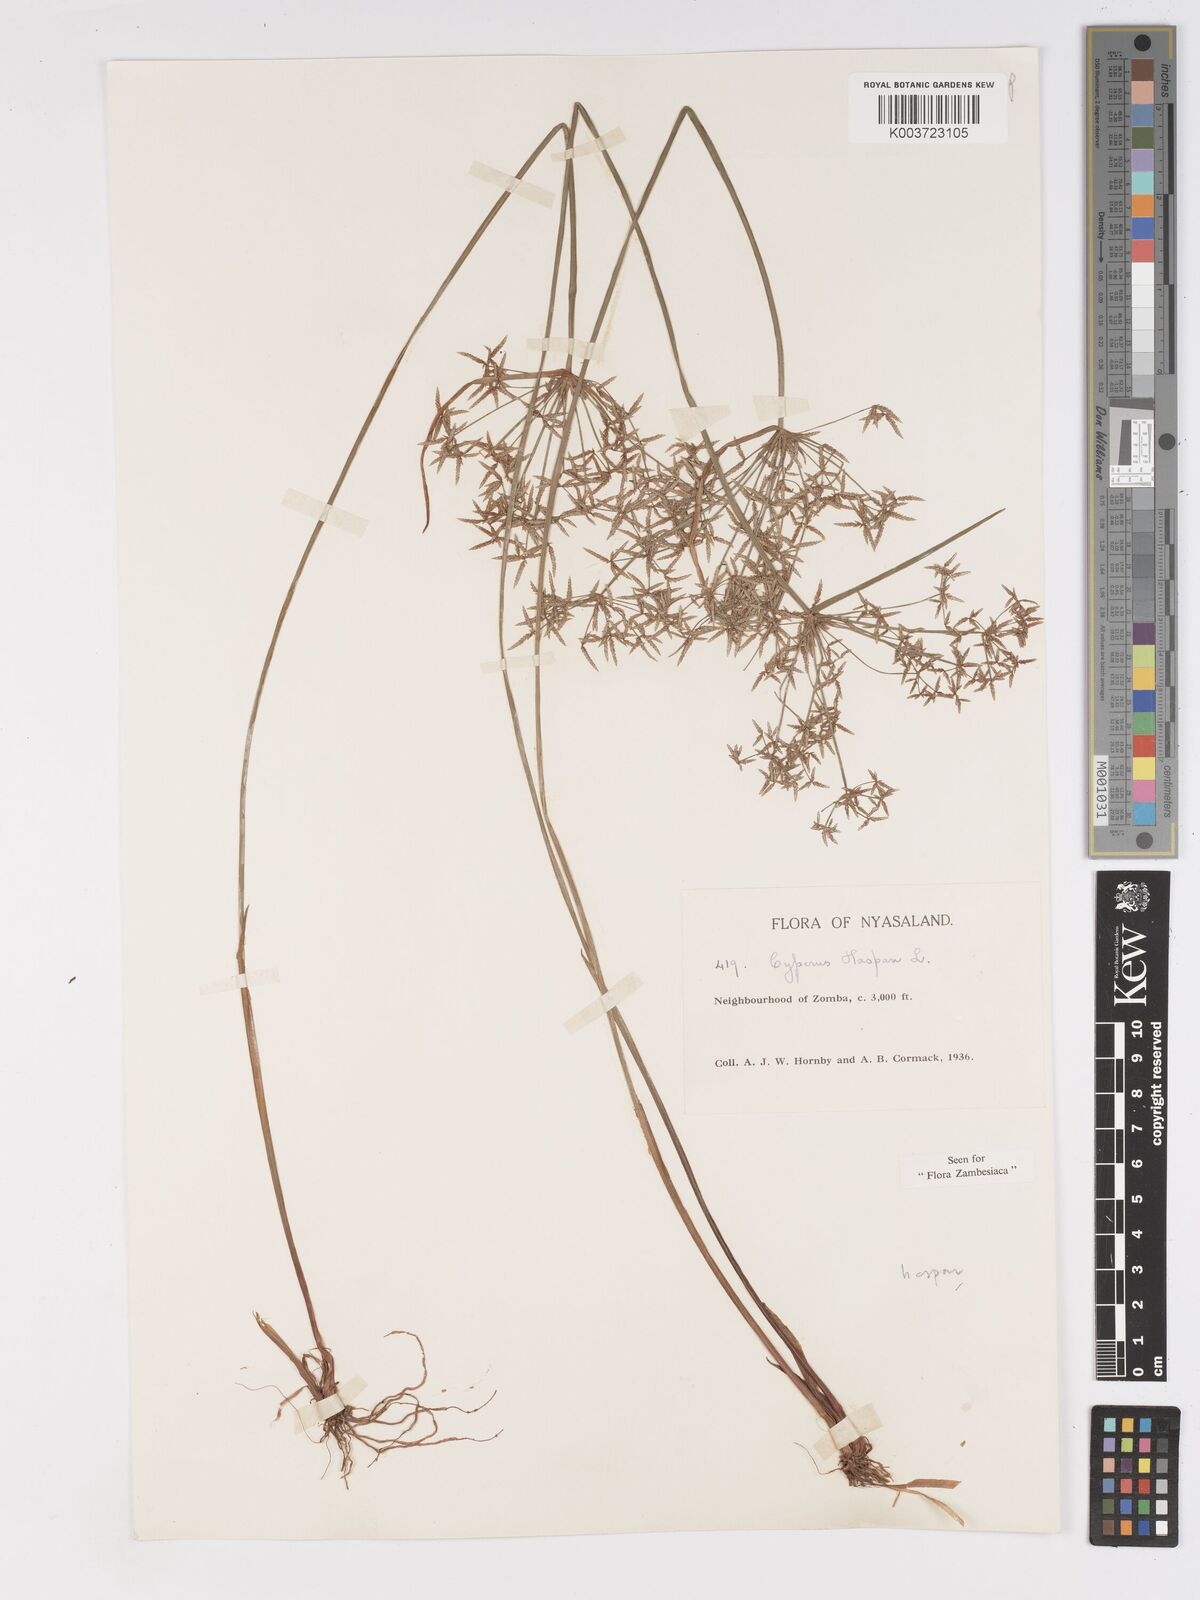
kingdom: Plantae
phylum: Tracheophyta
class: Liliopsida
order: Poales
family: Cyperaceae
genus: Cyperus
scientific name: Cyperus haspan
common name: Haspan flatsedge
